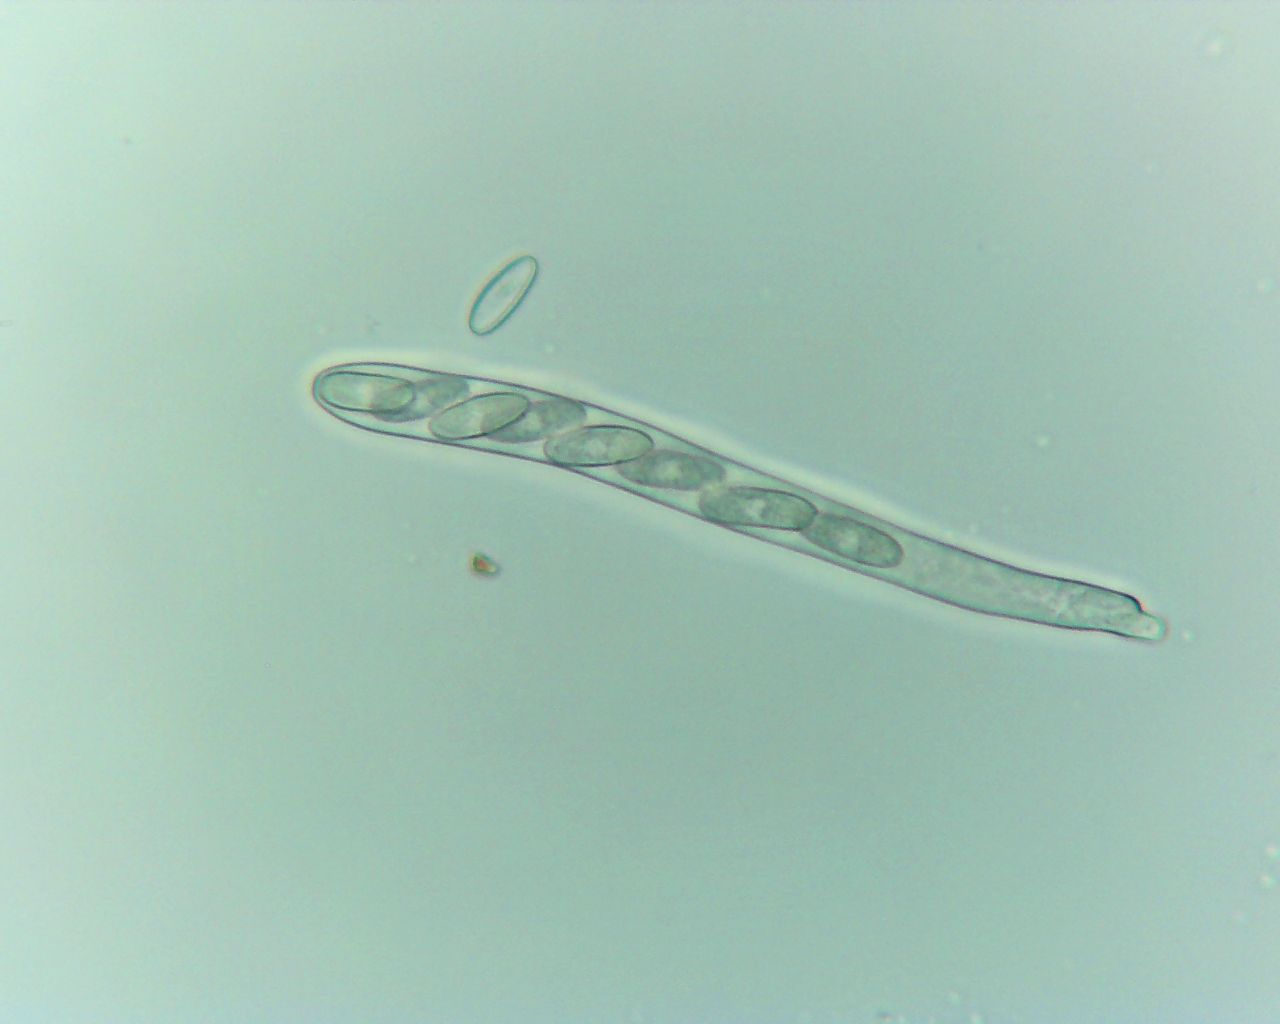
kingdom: Fungi
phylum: Ascomycota
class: Leotiomycetes
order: Helotiales
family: Lachnaceae
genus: Lachnellula
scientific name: Lachnellula
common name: frynseskive
